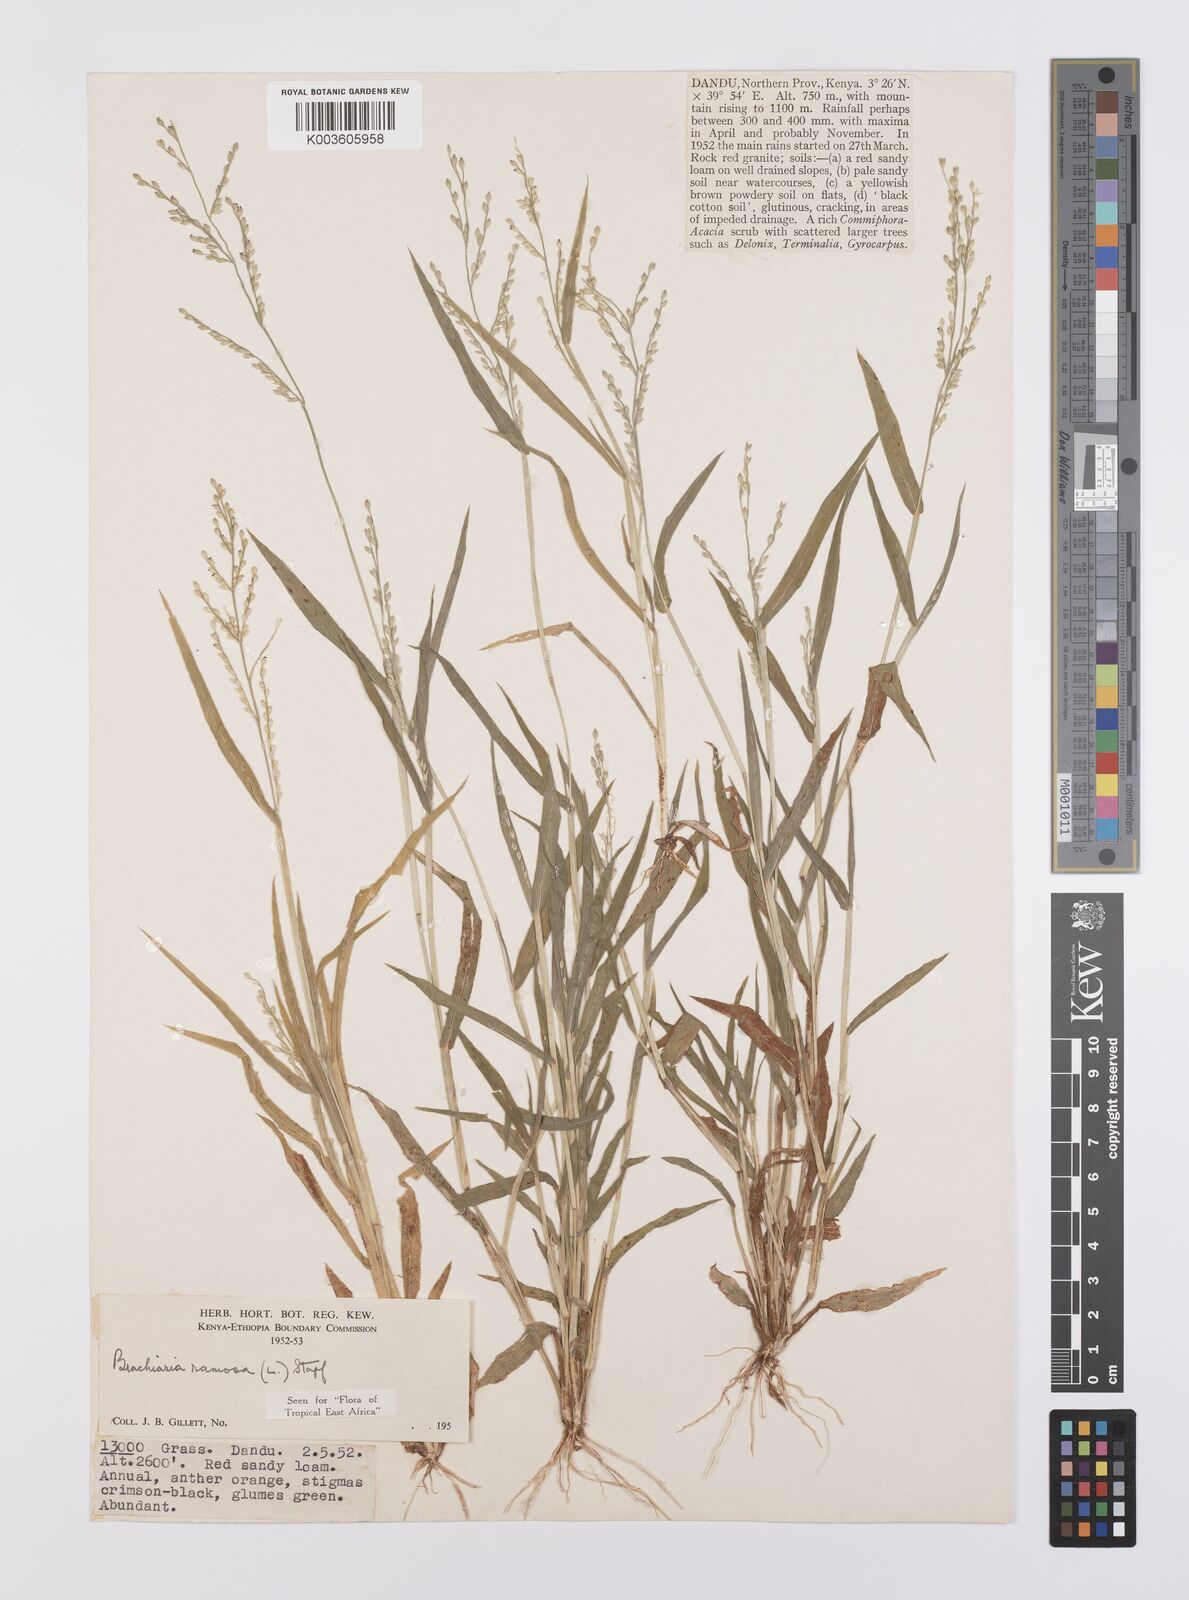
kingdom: Plantae
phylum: Tracheophyta
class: Liliopsida
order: Poales
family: Poaceae
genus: Urochloa
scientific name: Urochloa ramosa
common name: Browntop millet
